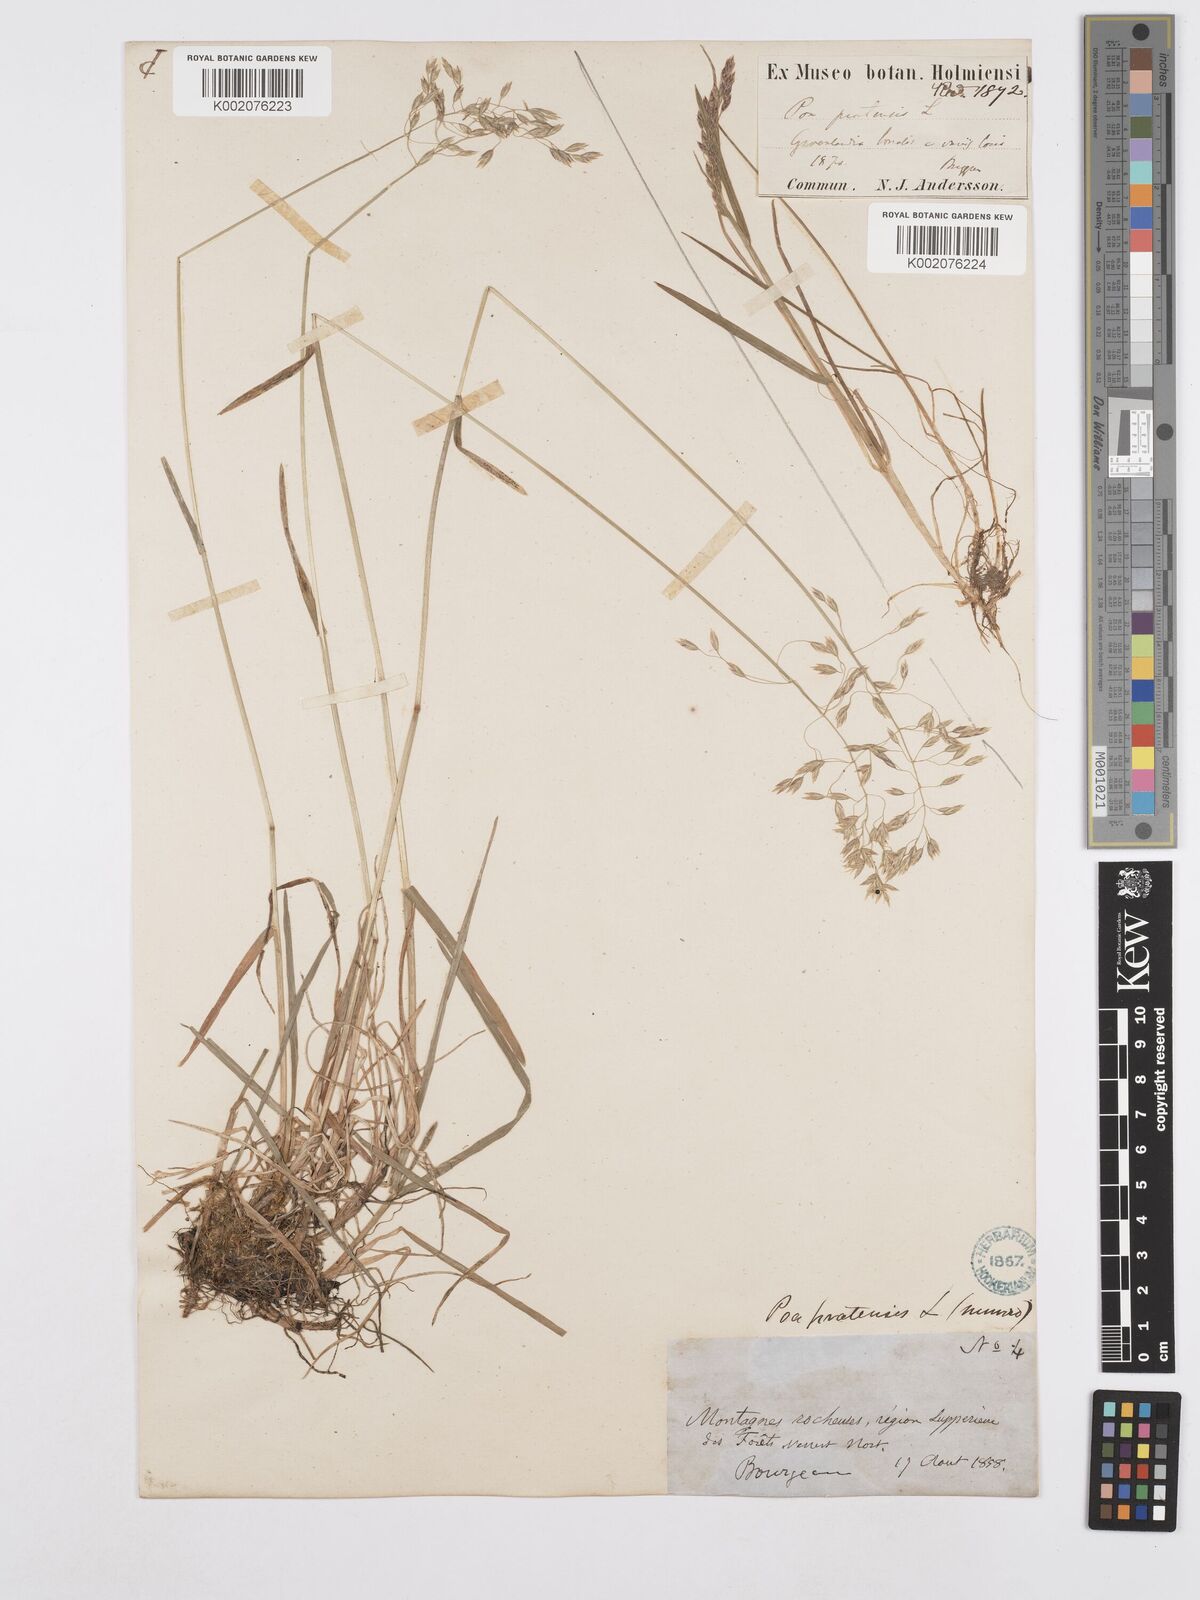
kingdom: Plantae
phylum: Tracheophyta
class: Liliopsida
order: Poales
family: Poaceae
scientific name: Poaceae
